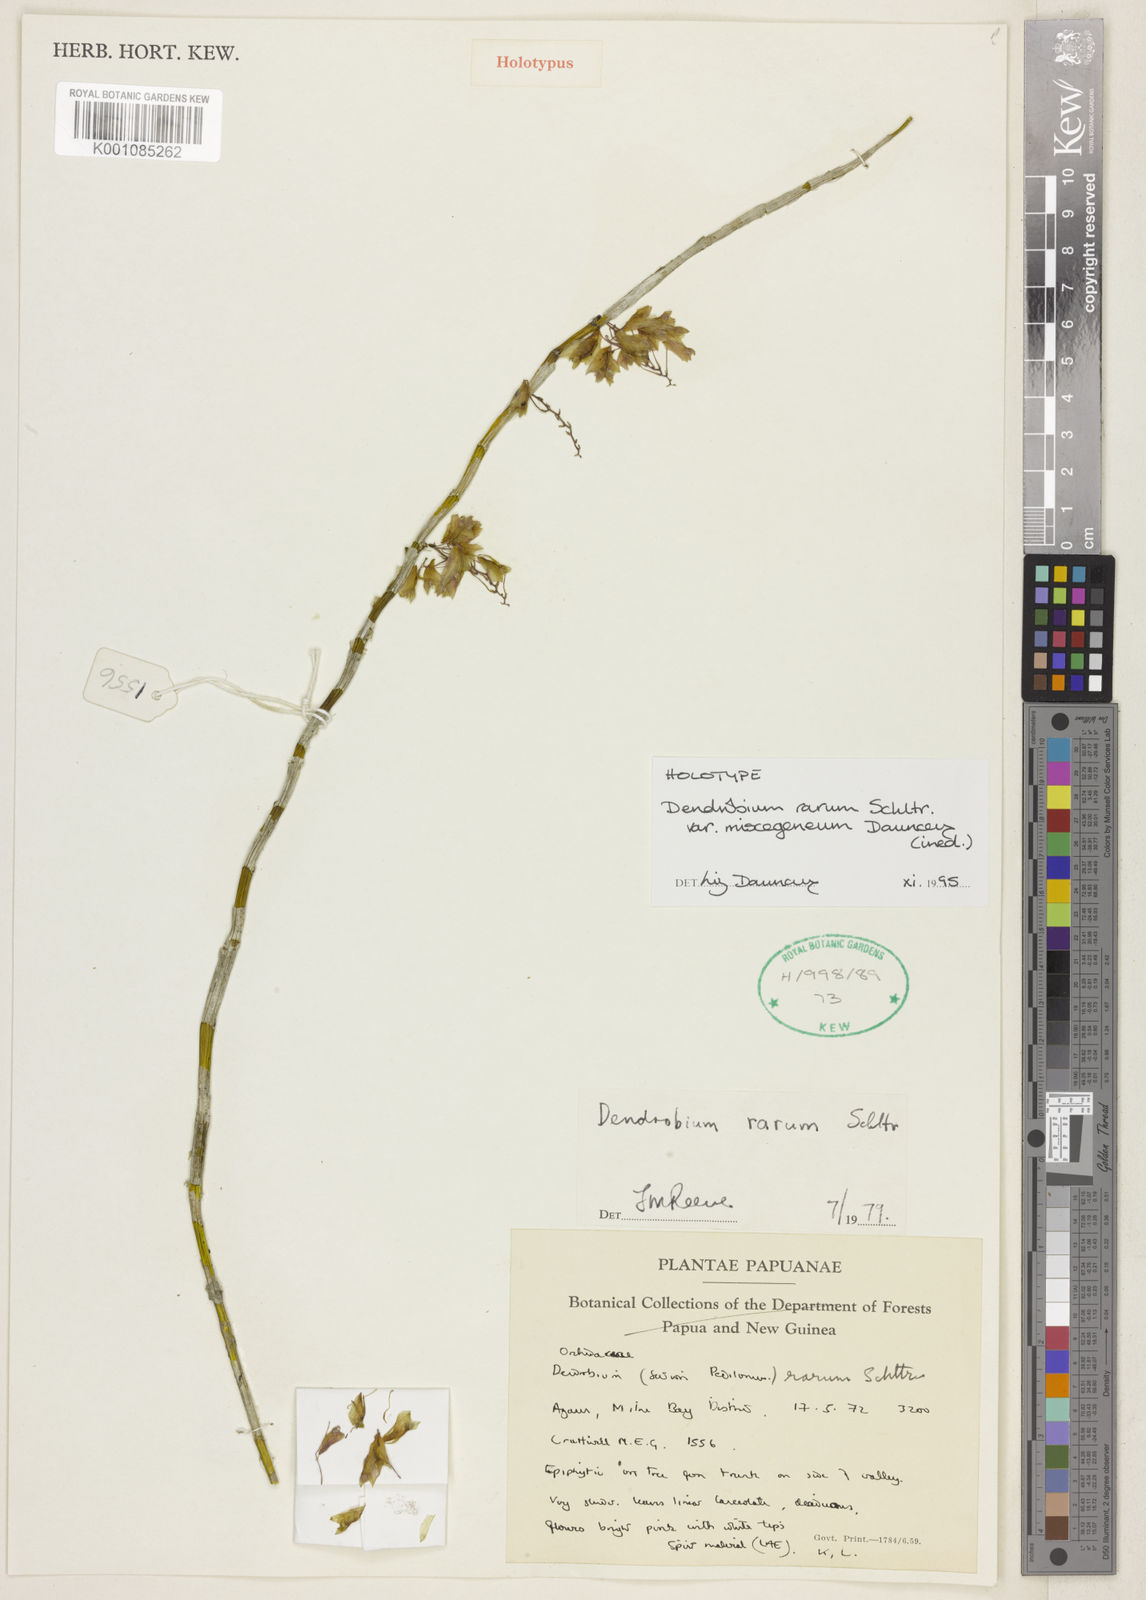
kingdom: Plantae
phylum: Tracheophyta
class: Liliopsida
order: Asparagales
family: Orchidaceae
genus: Dendrobium
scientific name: Dendrobium rarum
